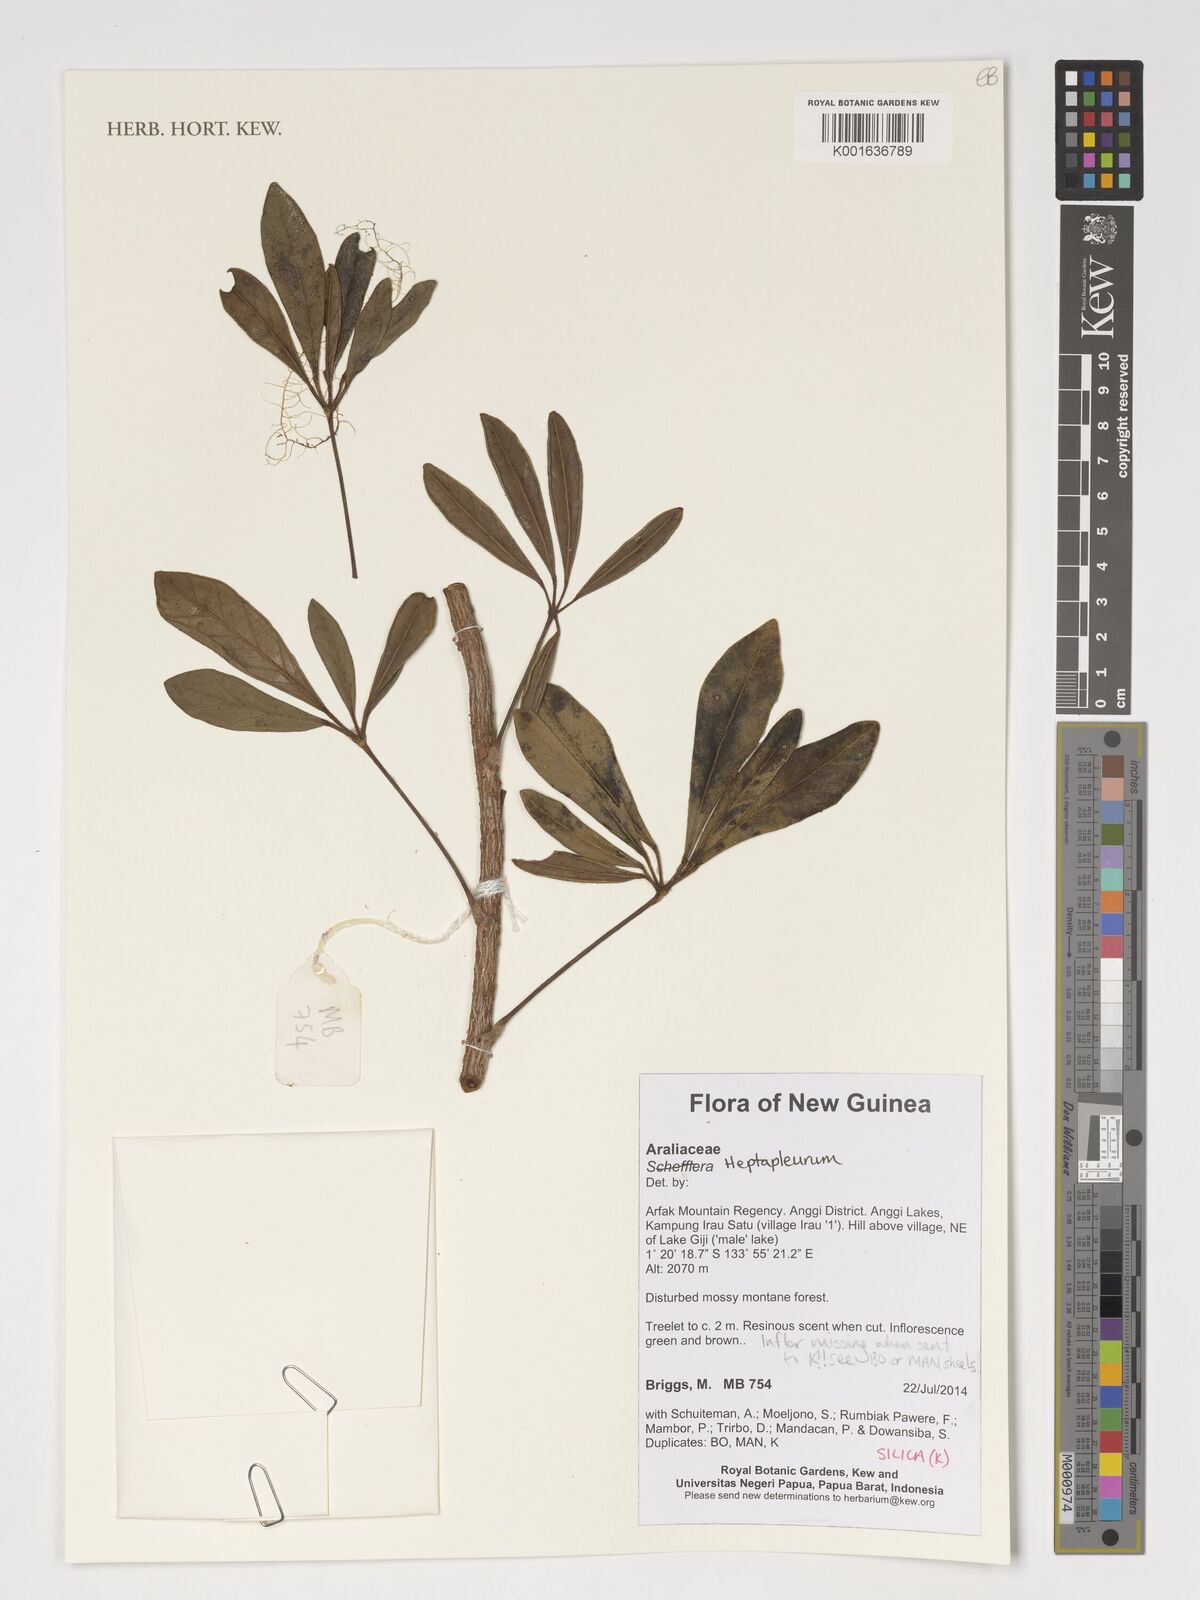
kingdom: Plantae
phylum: Tracheophyta
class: Magnoliopsida
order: Apiales
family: Araliaceae
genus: Heptapleurum
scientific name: Heptapleurum
